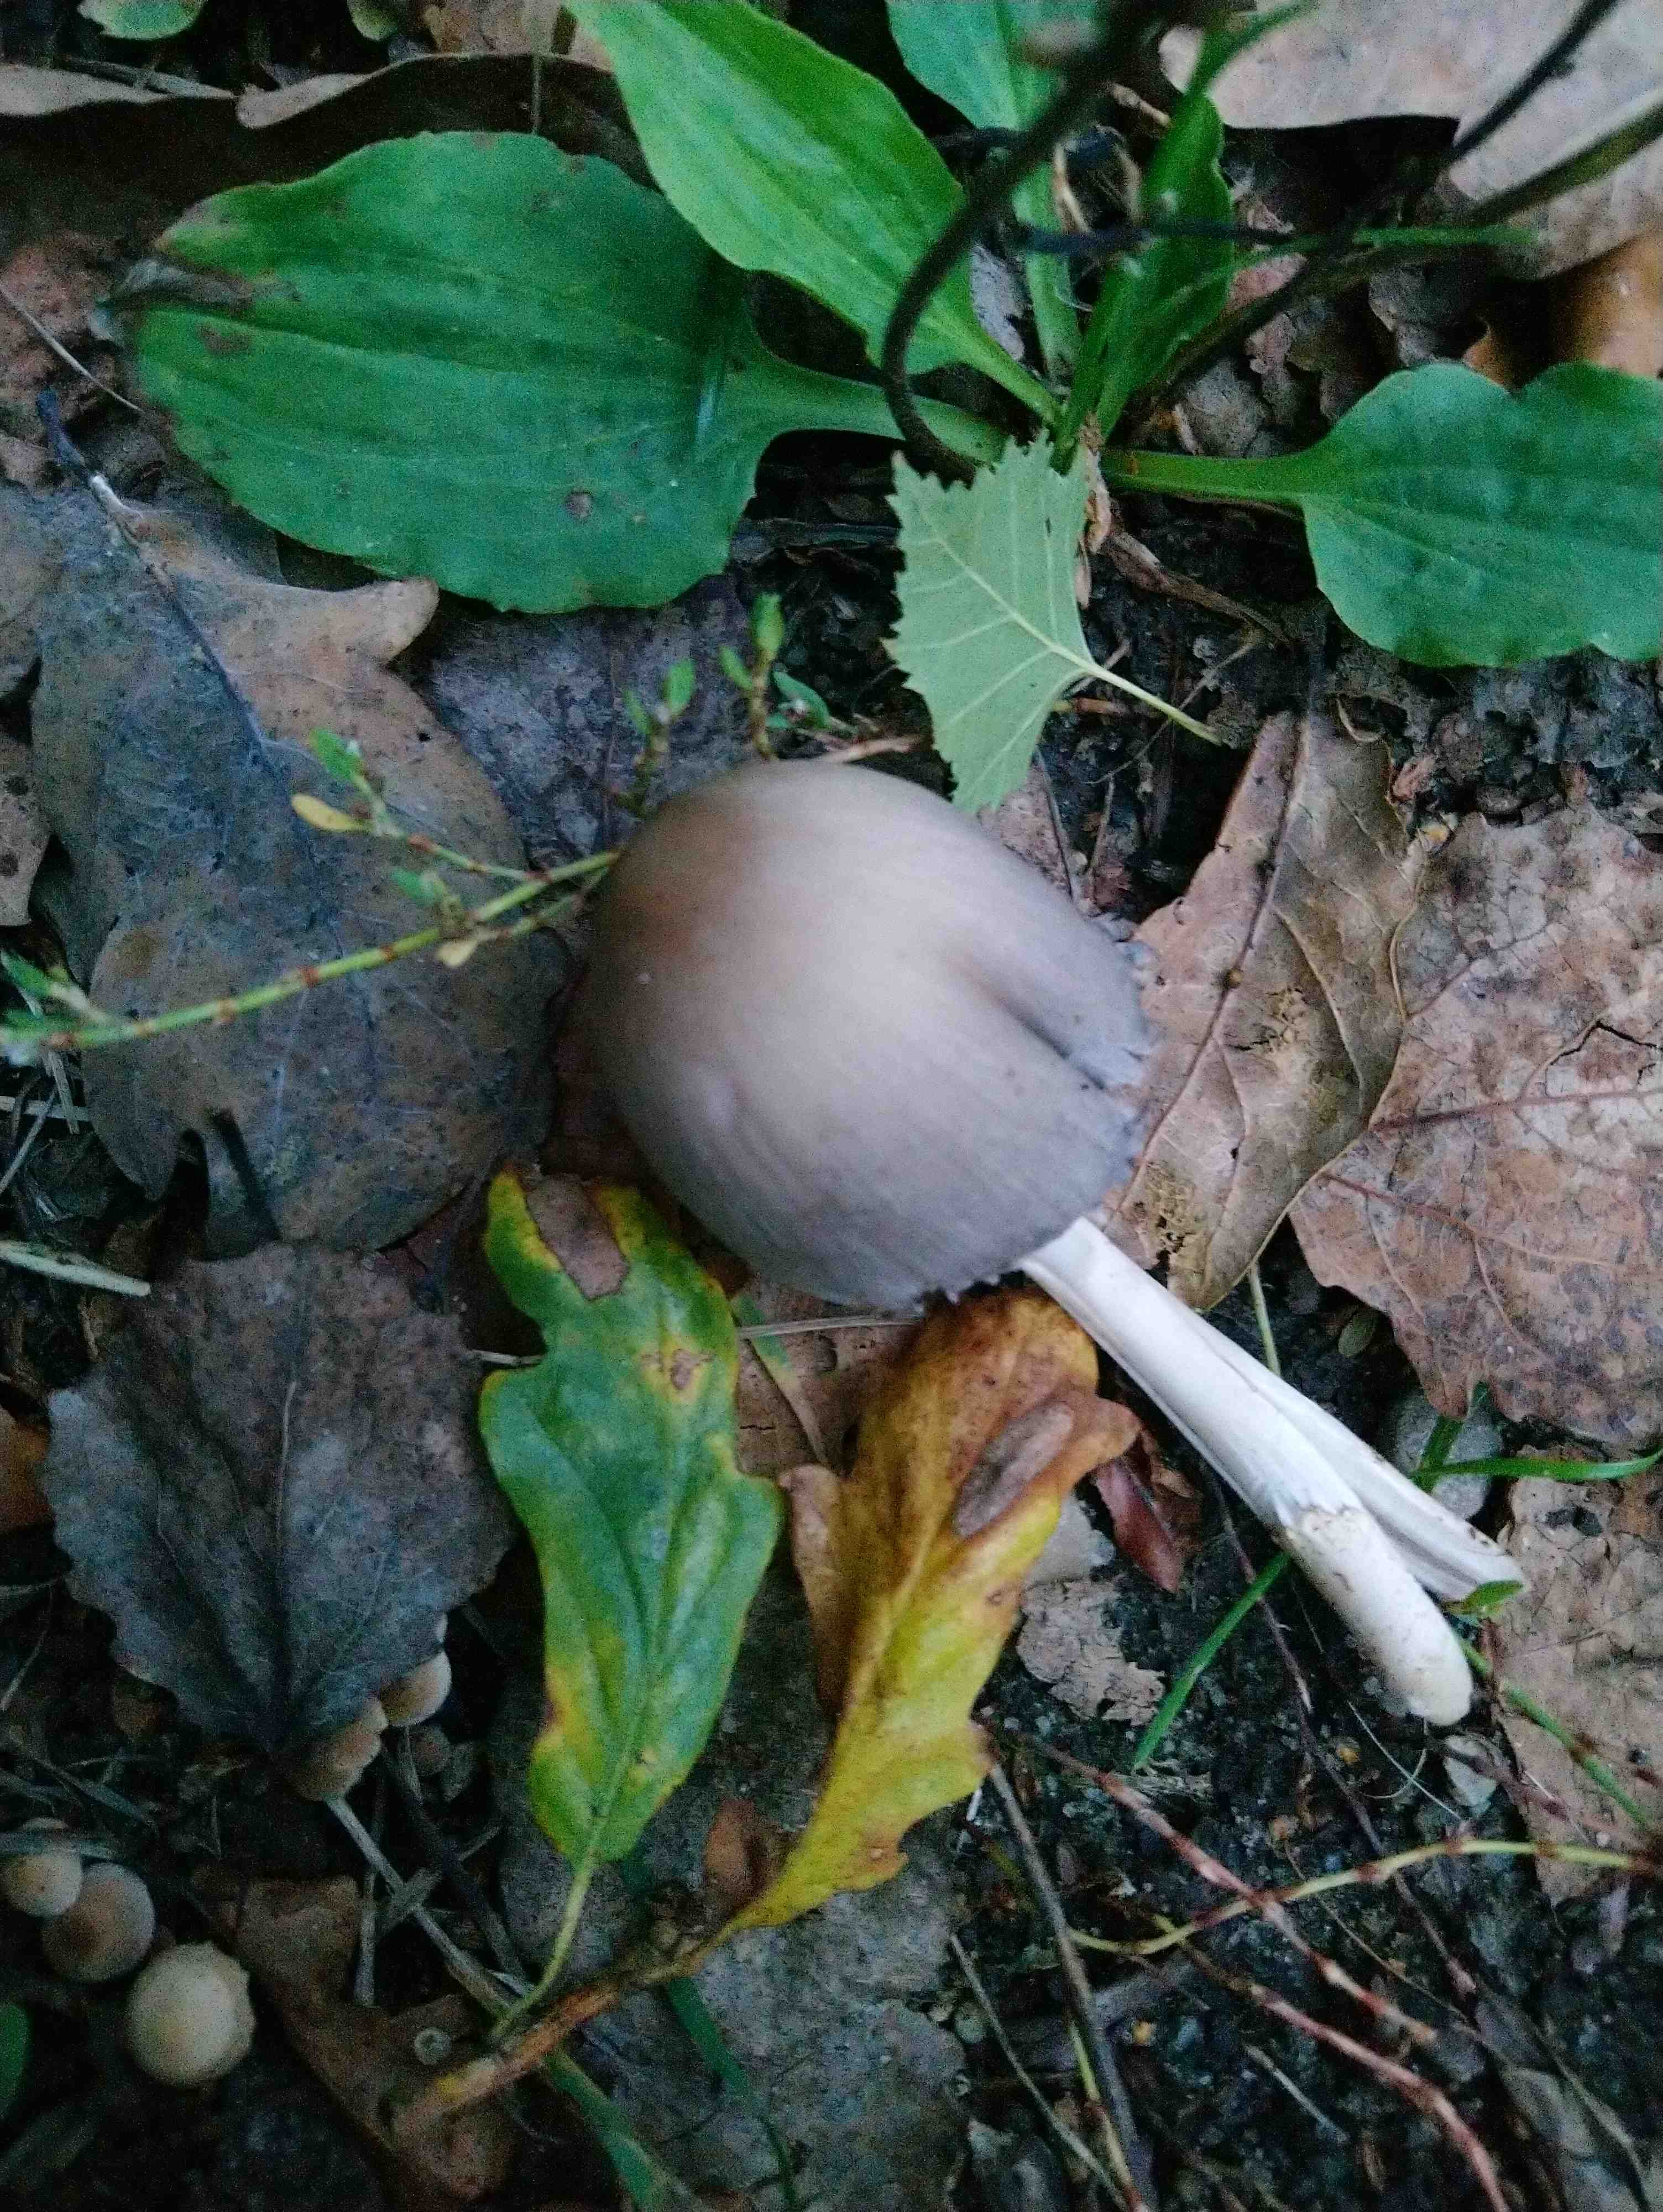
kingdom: Fungi
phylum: Basidiomycota
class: Agaricomycetes
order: Agaricales
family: Psathyrellaceae
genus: Coprinopsis
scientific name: Coprinopsis
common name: blækhat
